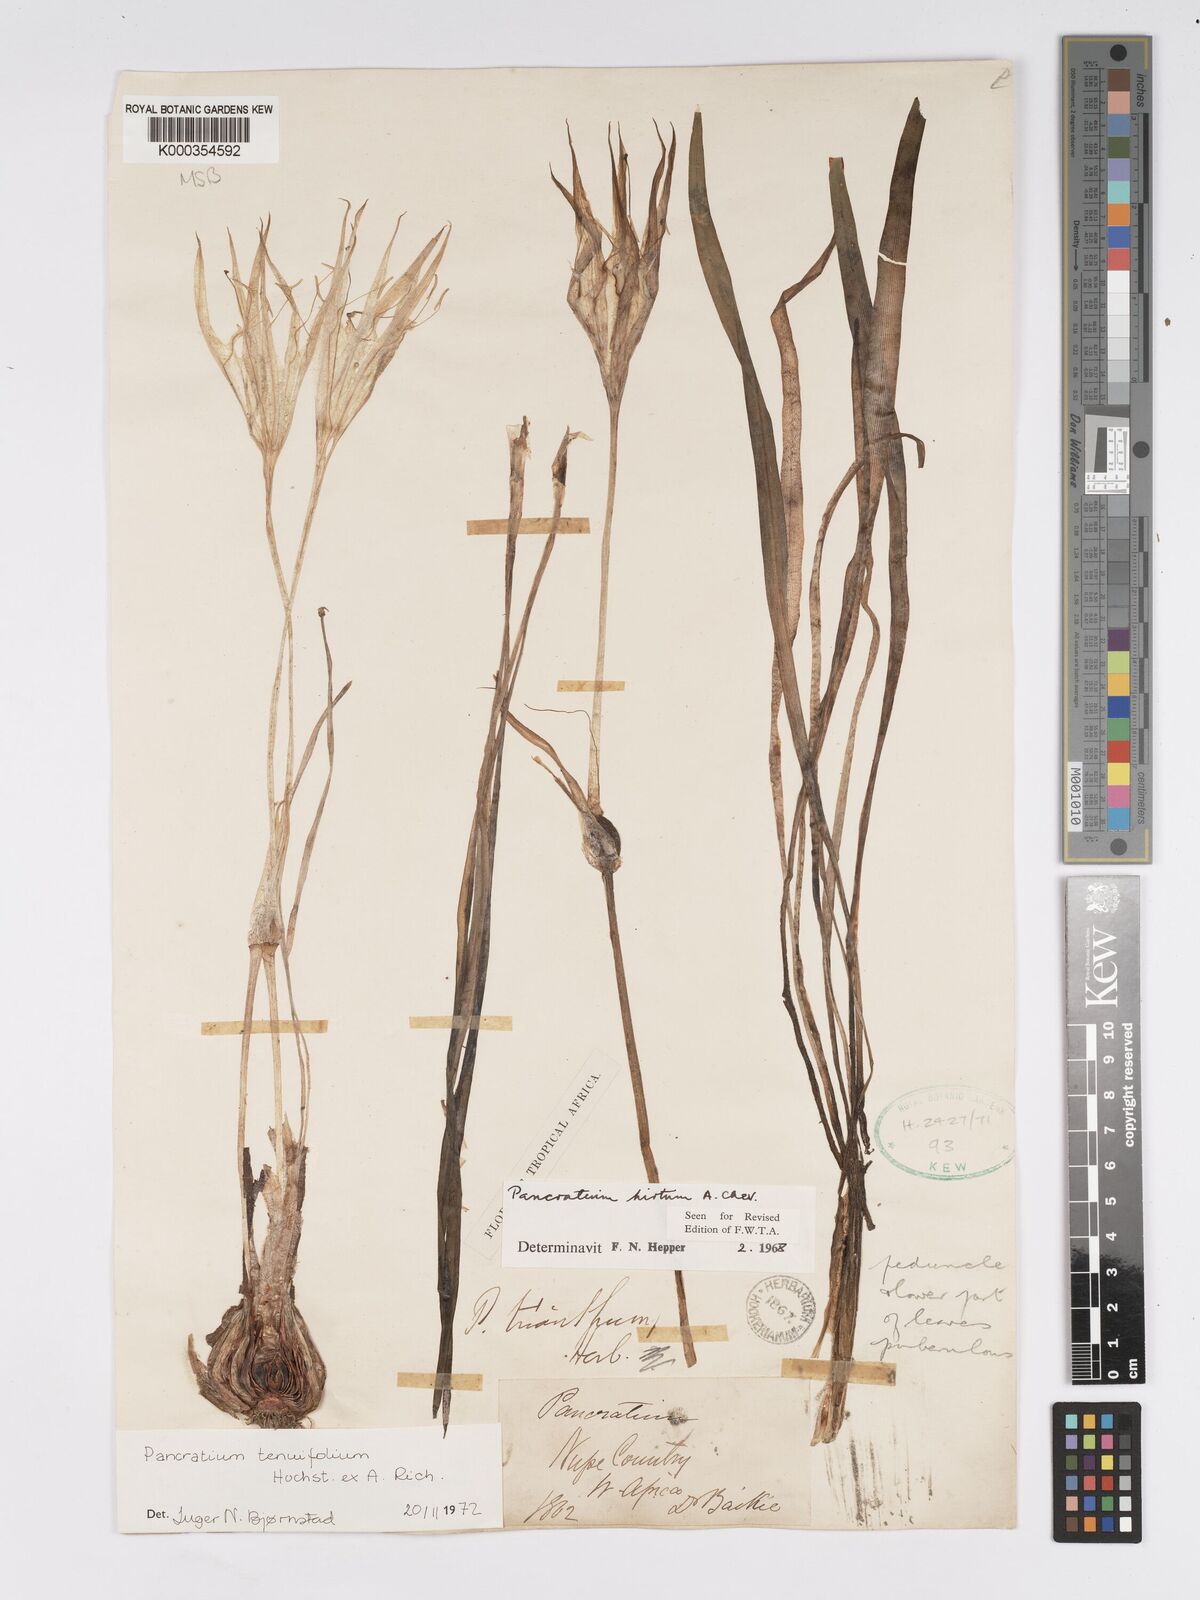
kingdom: Plantae
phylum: Tracheophyta
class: Liliopsida
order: Asparagales
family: Amaryllidaceae
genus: Pancratium
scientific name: Pancratium tenuifolium
